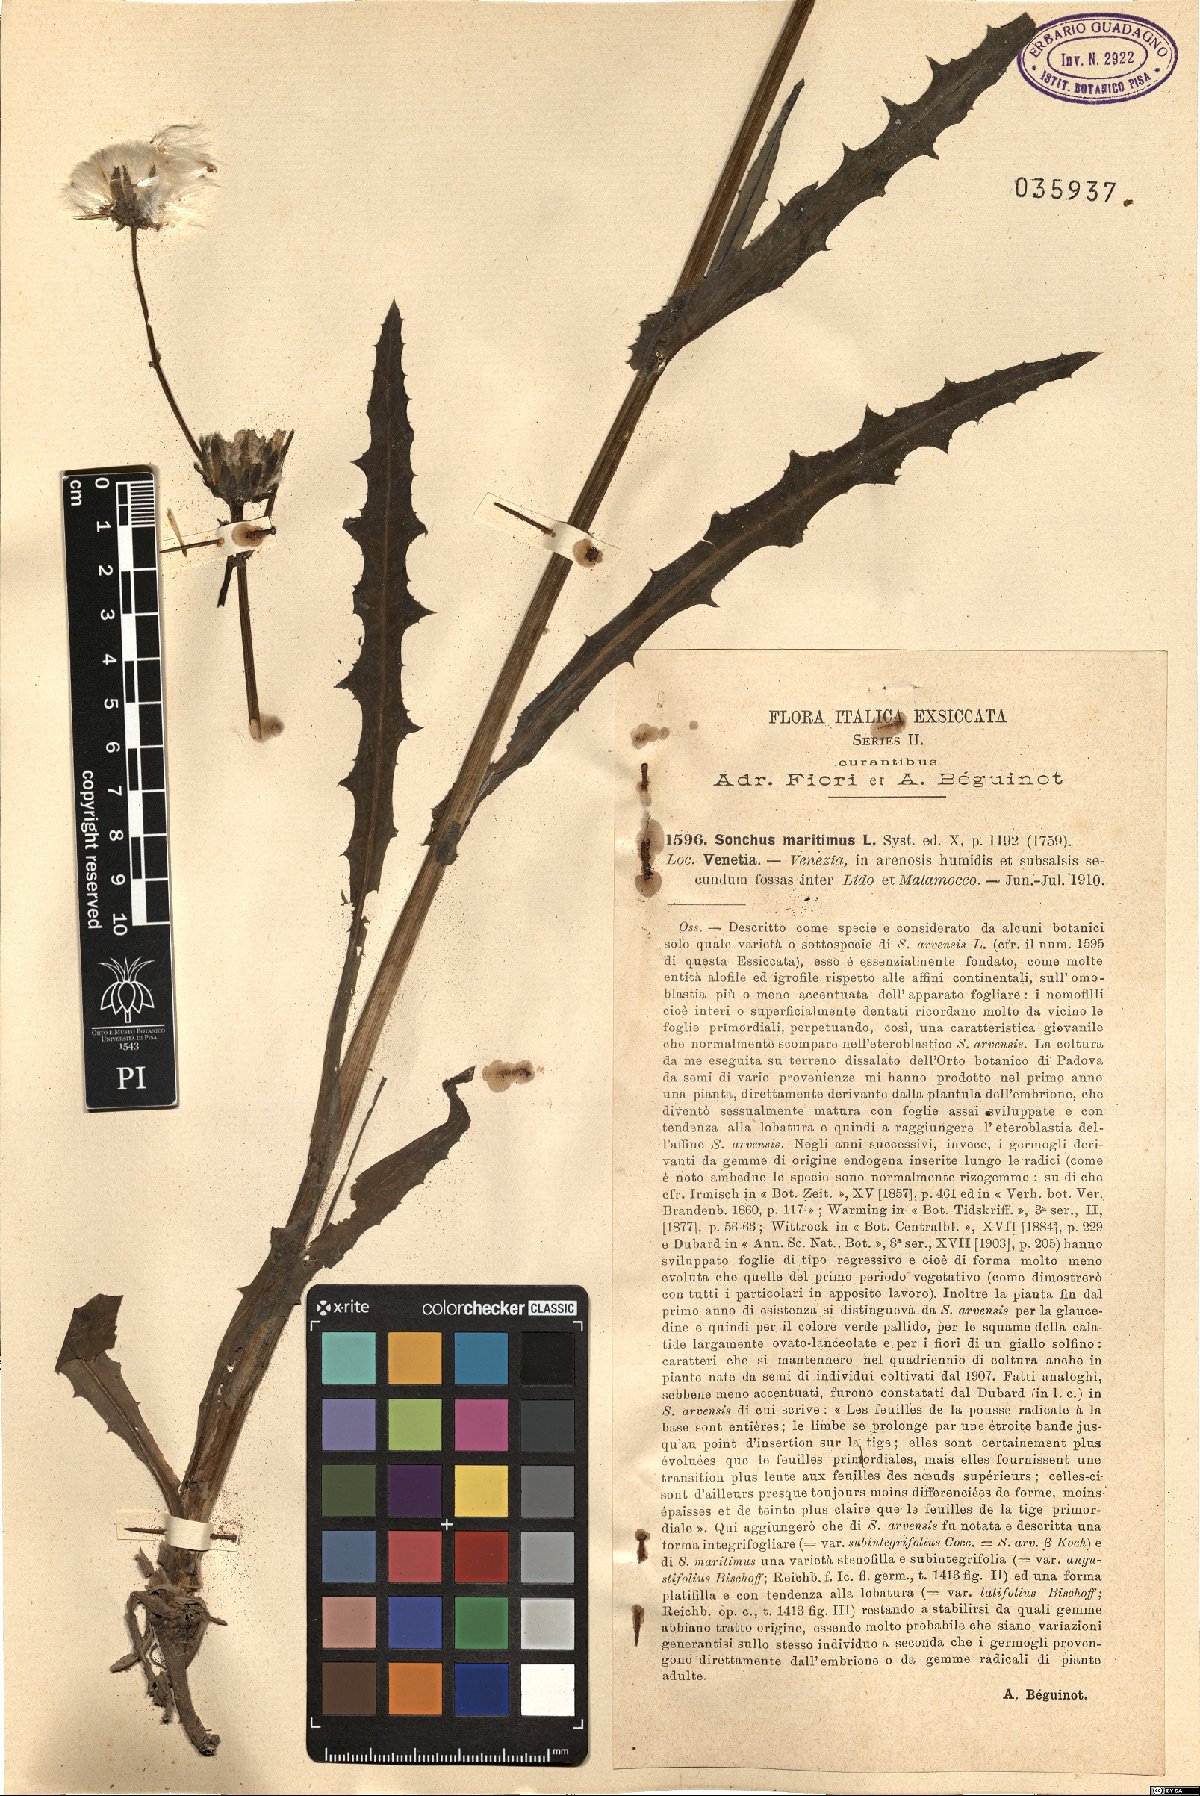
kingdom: Plantae
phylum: Tracheophyta
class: Magnoliopsida
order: Asterales
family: Asteraceae
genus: Sonchus
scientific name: Sonchus maritimus
